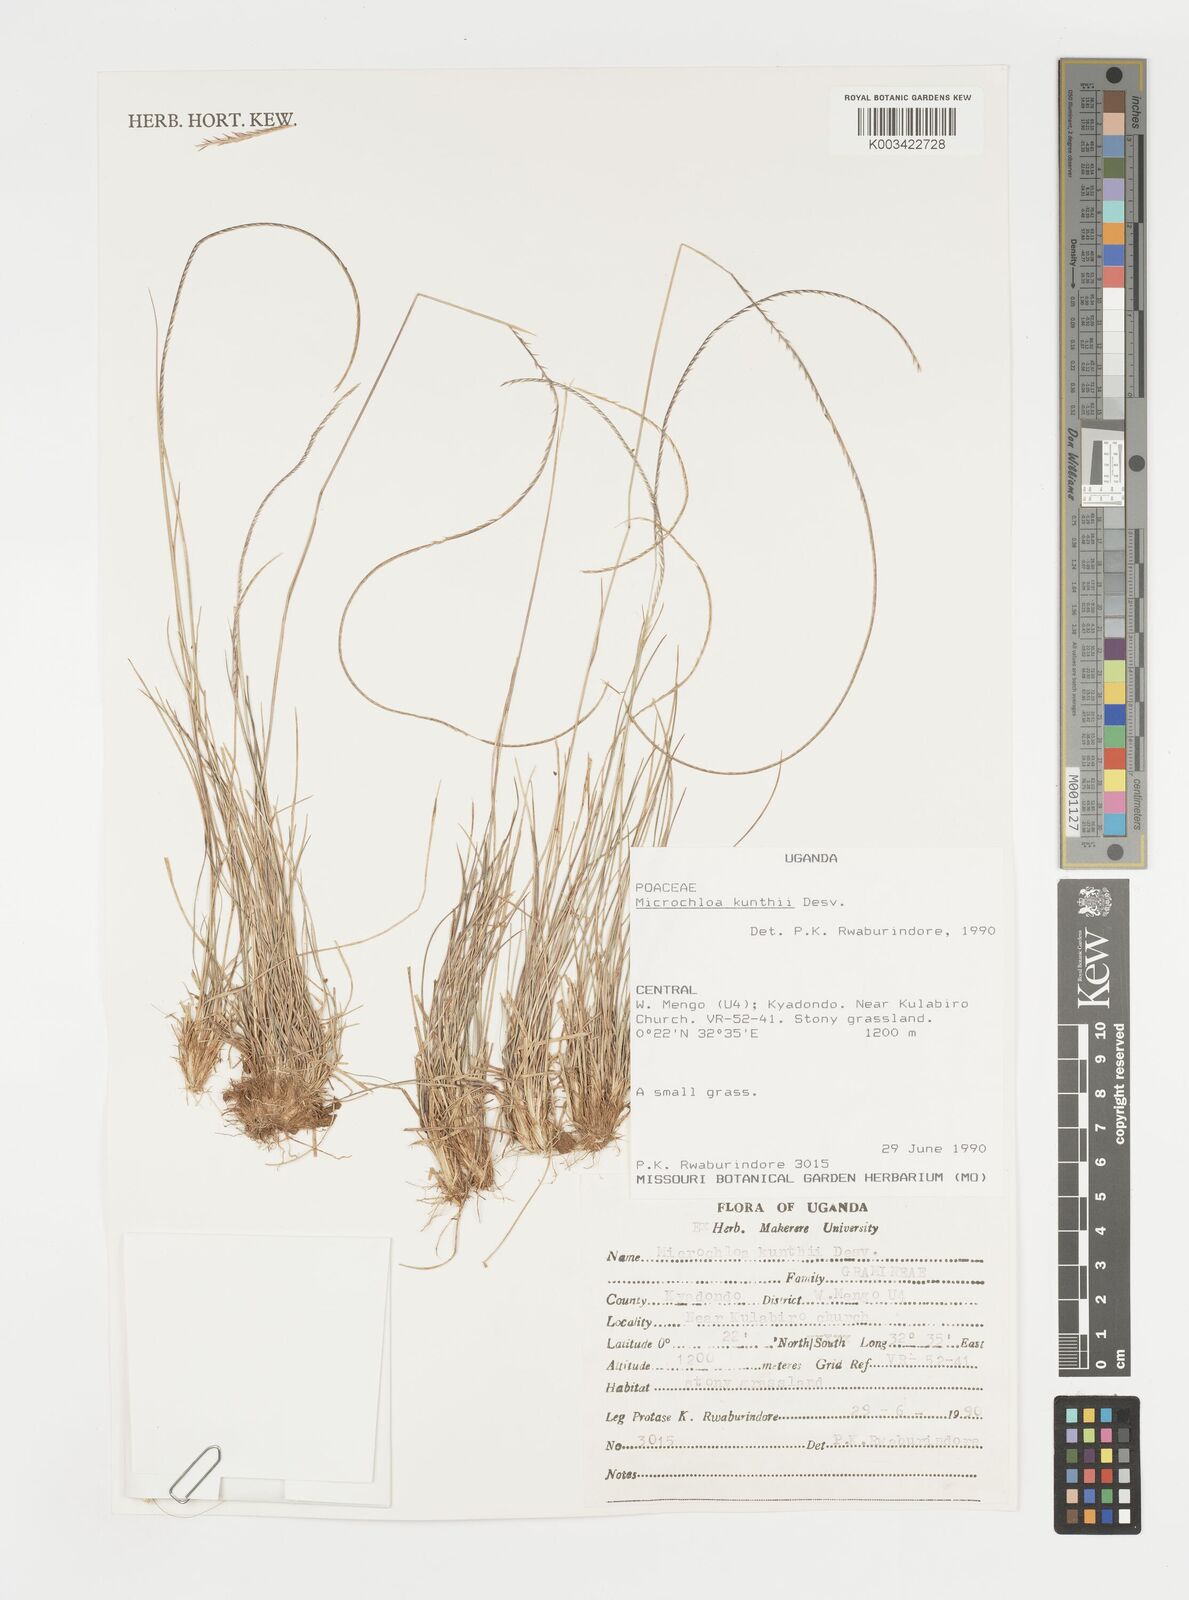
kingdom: Plantae
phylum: Tracheophyta
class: Liliopsida
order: Poales
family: Poaceae
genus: Microchloa
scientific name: Microchloa kunthii
